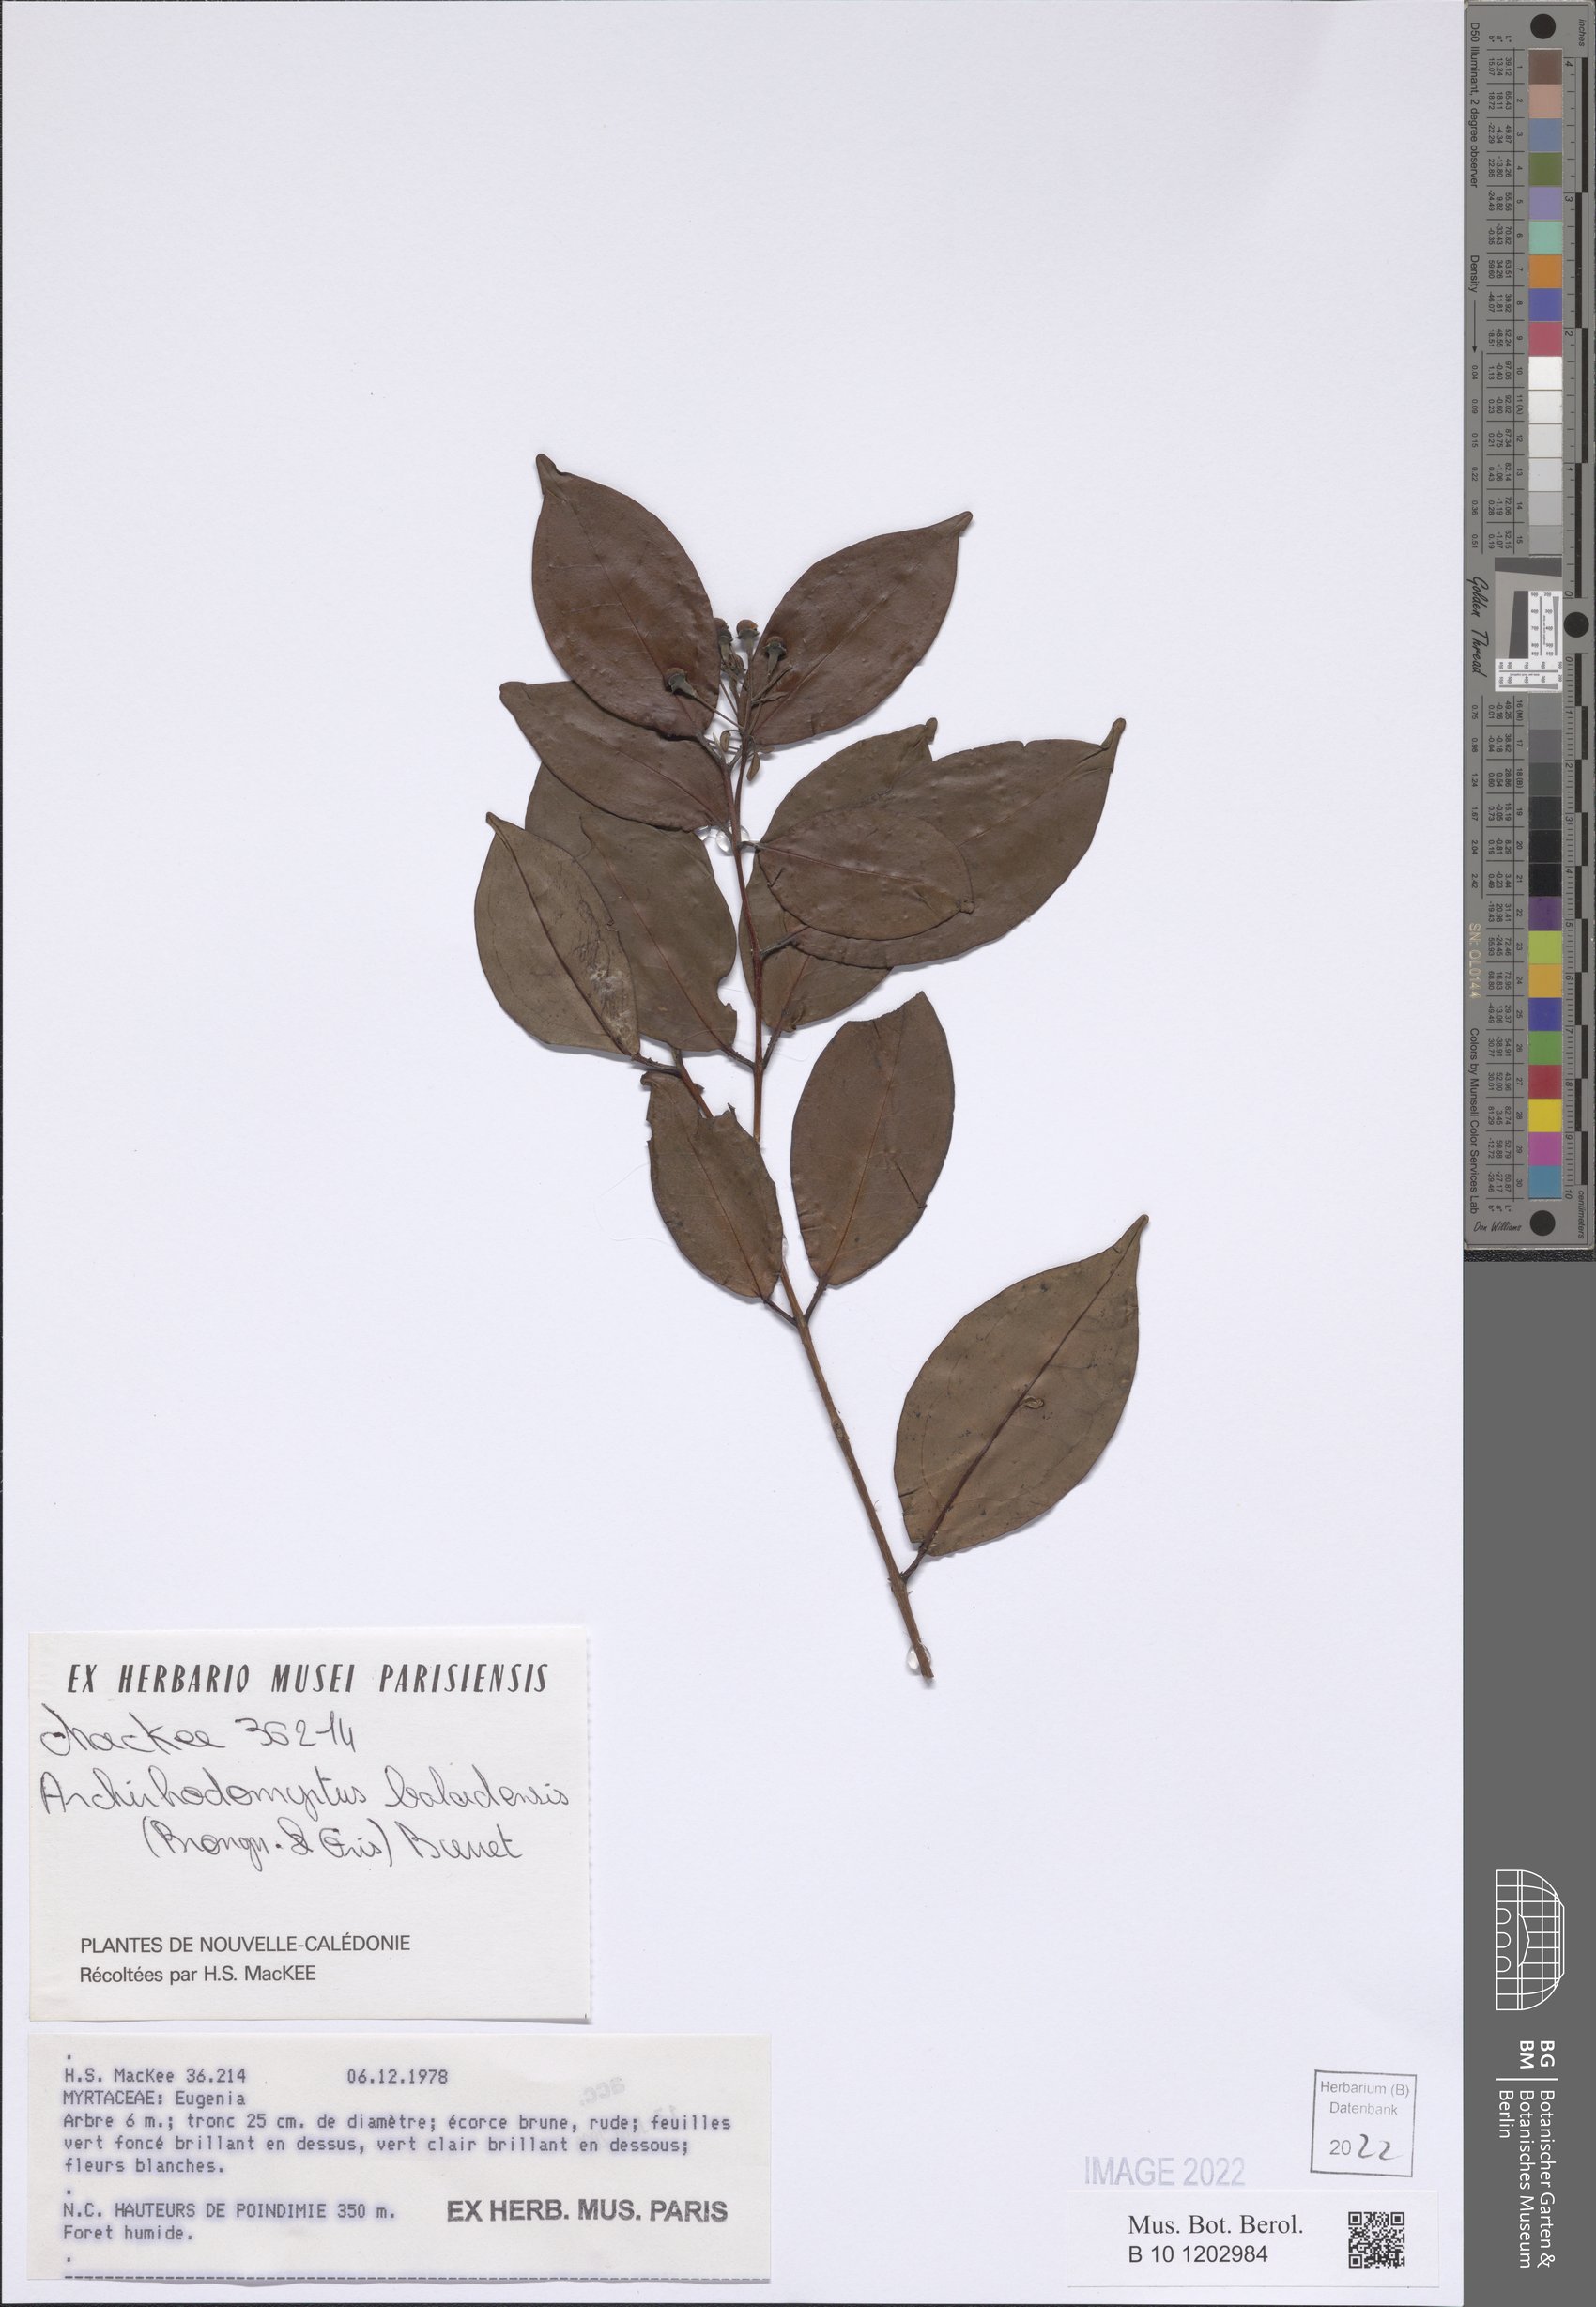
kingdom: Plantae
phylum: Tracheophyta
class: Magnoliopsida
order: Myrtales
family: Myrtaceae
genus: Archirhodomyrtus
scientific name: Archirhodomyrtus baladensis
